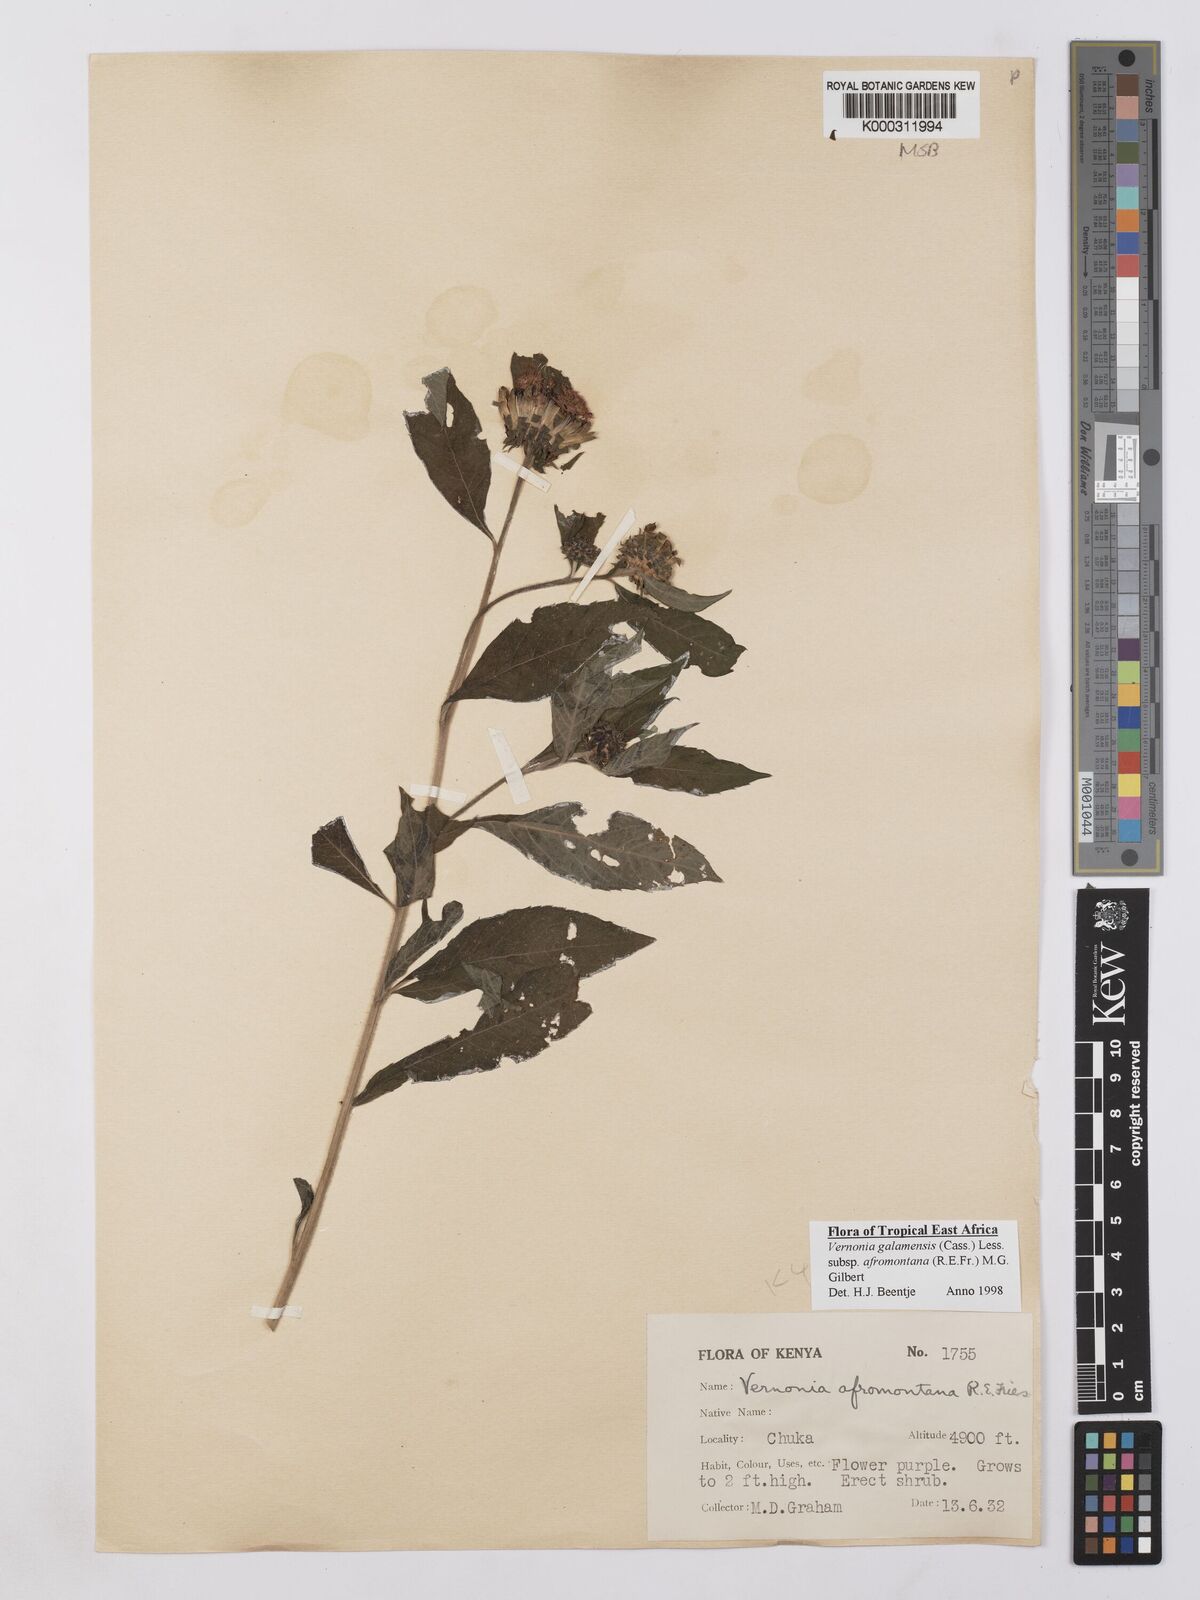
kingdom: Plantae
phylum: Tracheophyta
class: Magnoliopsida
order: Asterales
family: Asteraceae
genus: Vernonia
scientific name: Vernonia galamensis
